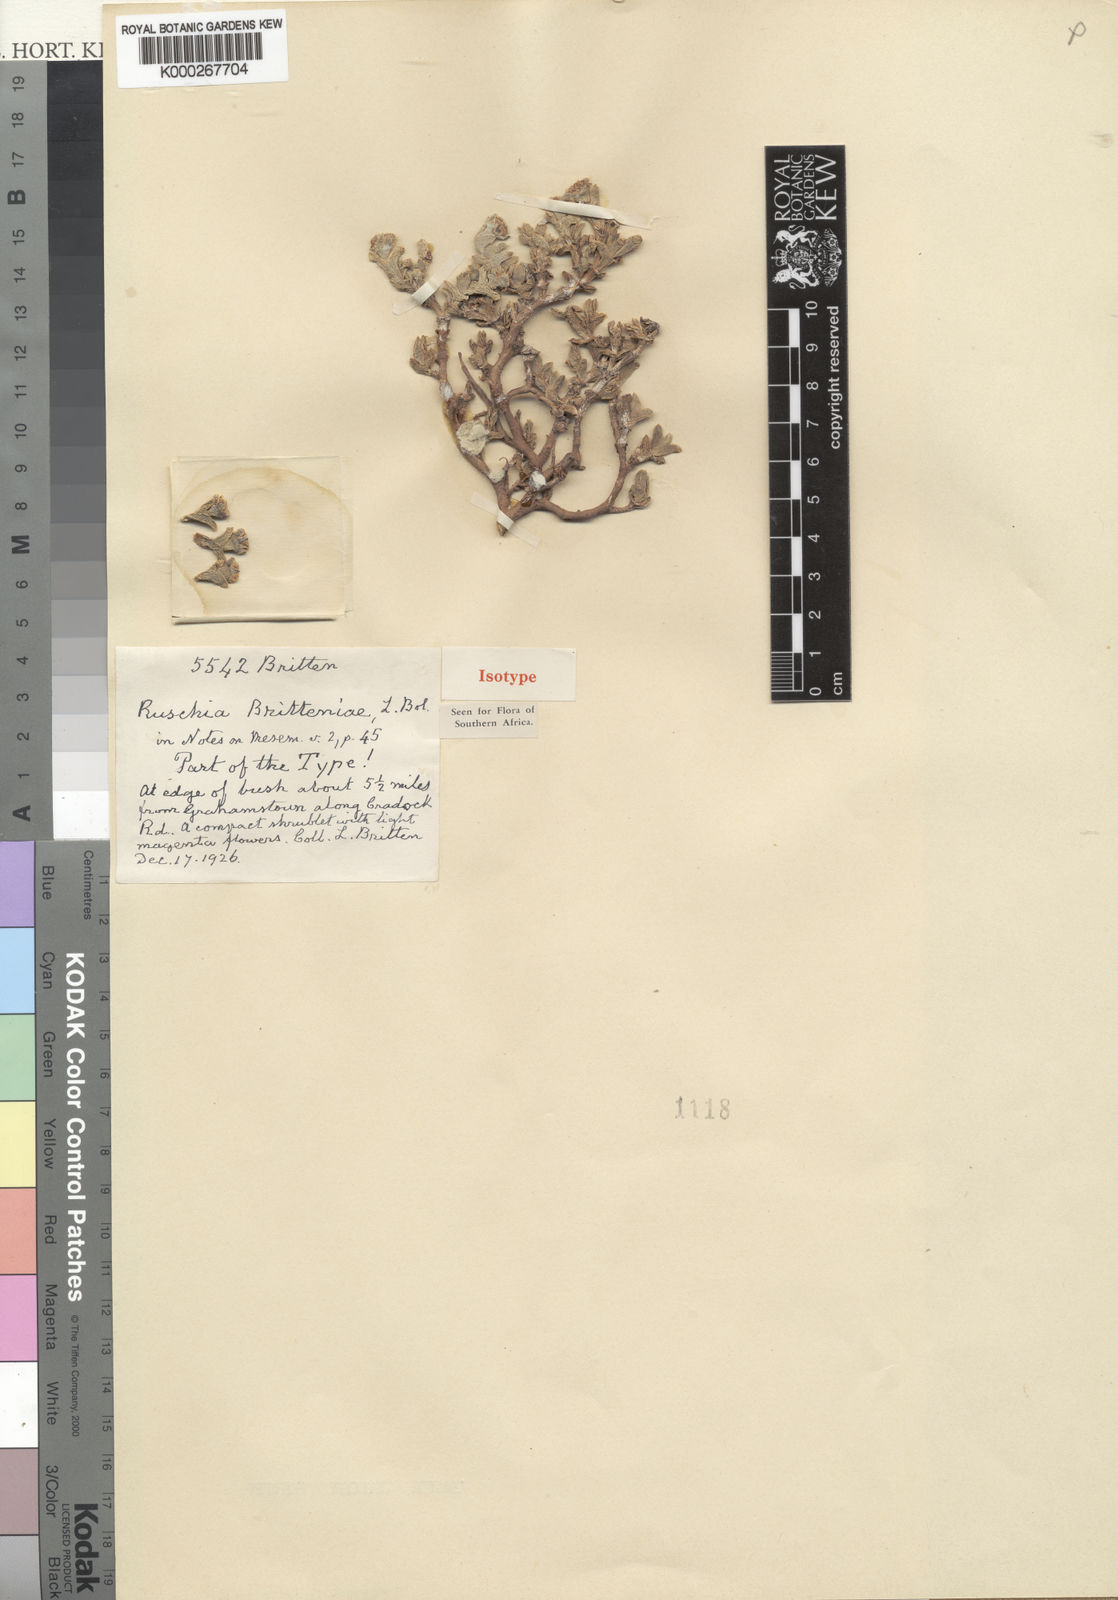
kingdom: Plantae
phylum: Tracheophyta
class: Magnoliopsida
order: Caryophyllales
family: Aizoaceae
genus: Ruschia
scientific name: Ruschia britteniae
